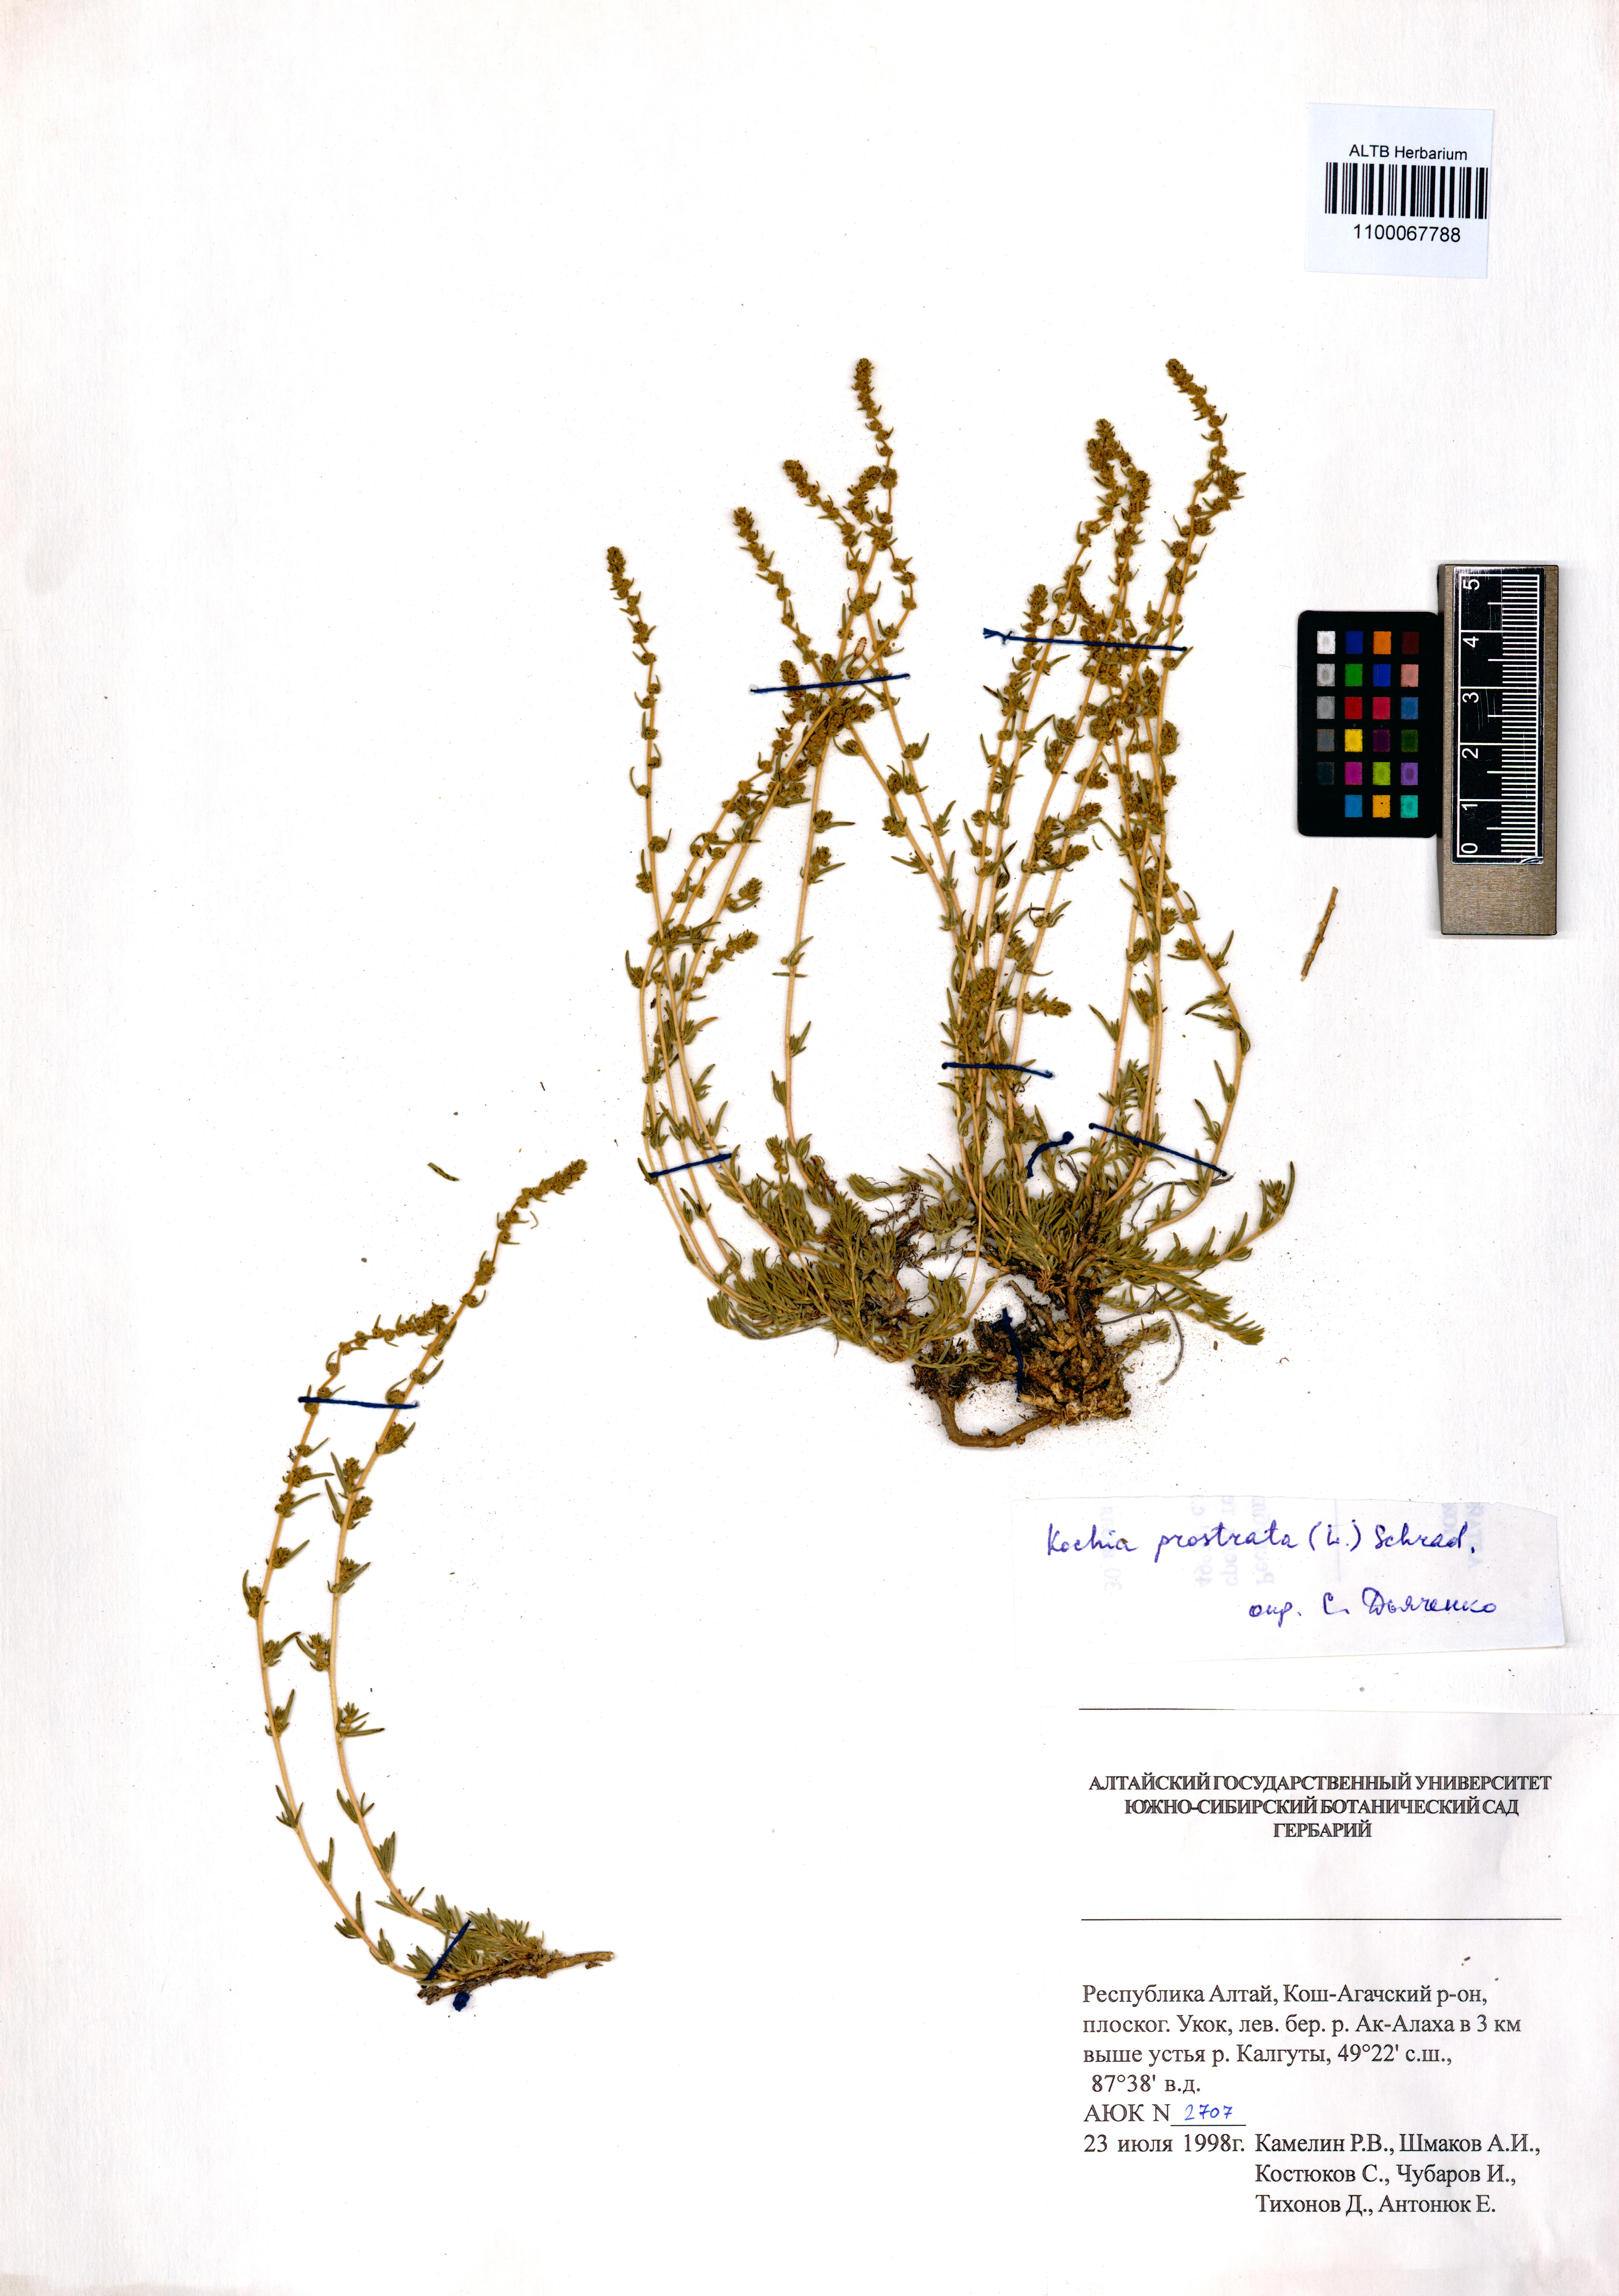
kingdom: Plantae
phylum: Tracheophyta
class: Magnoliopsida
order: Caryophyllales
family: Amaranthaceae
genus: Bassia
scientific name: Bassia prostrata
